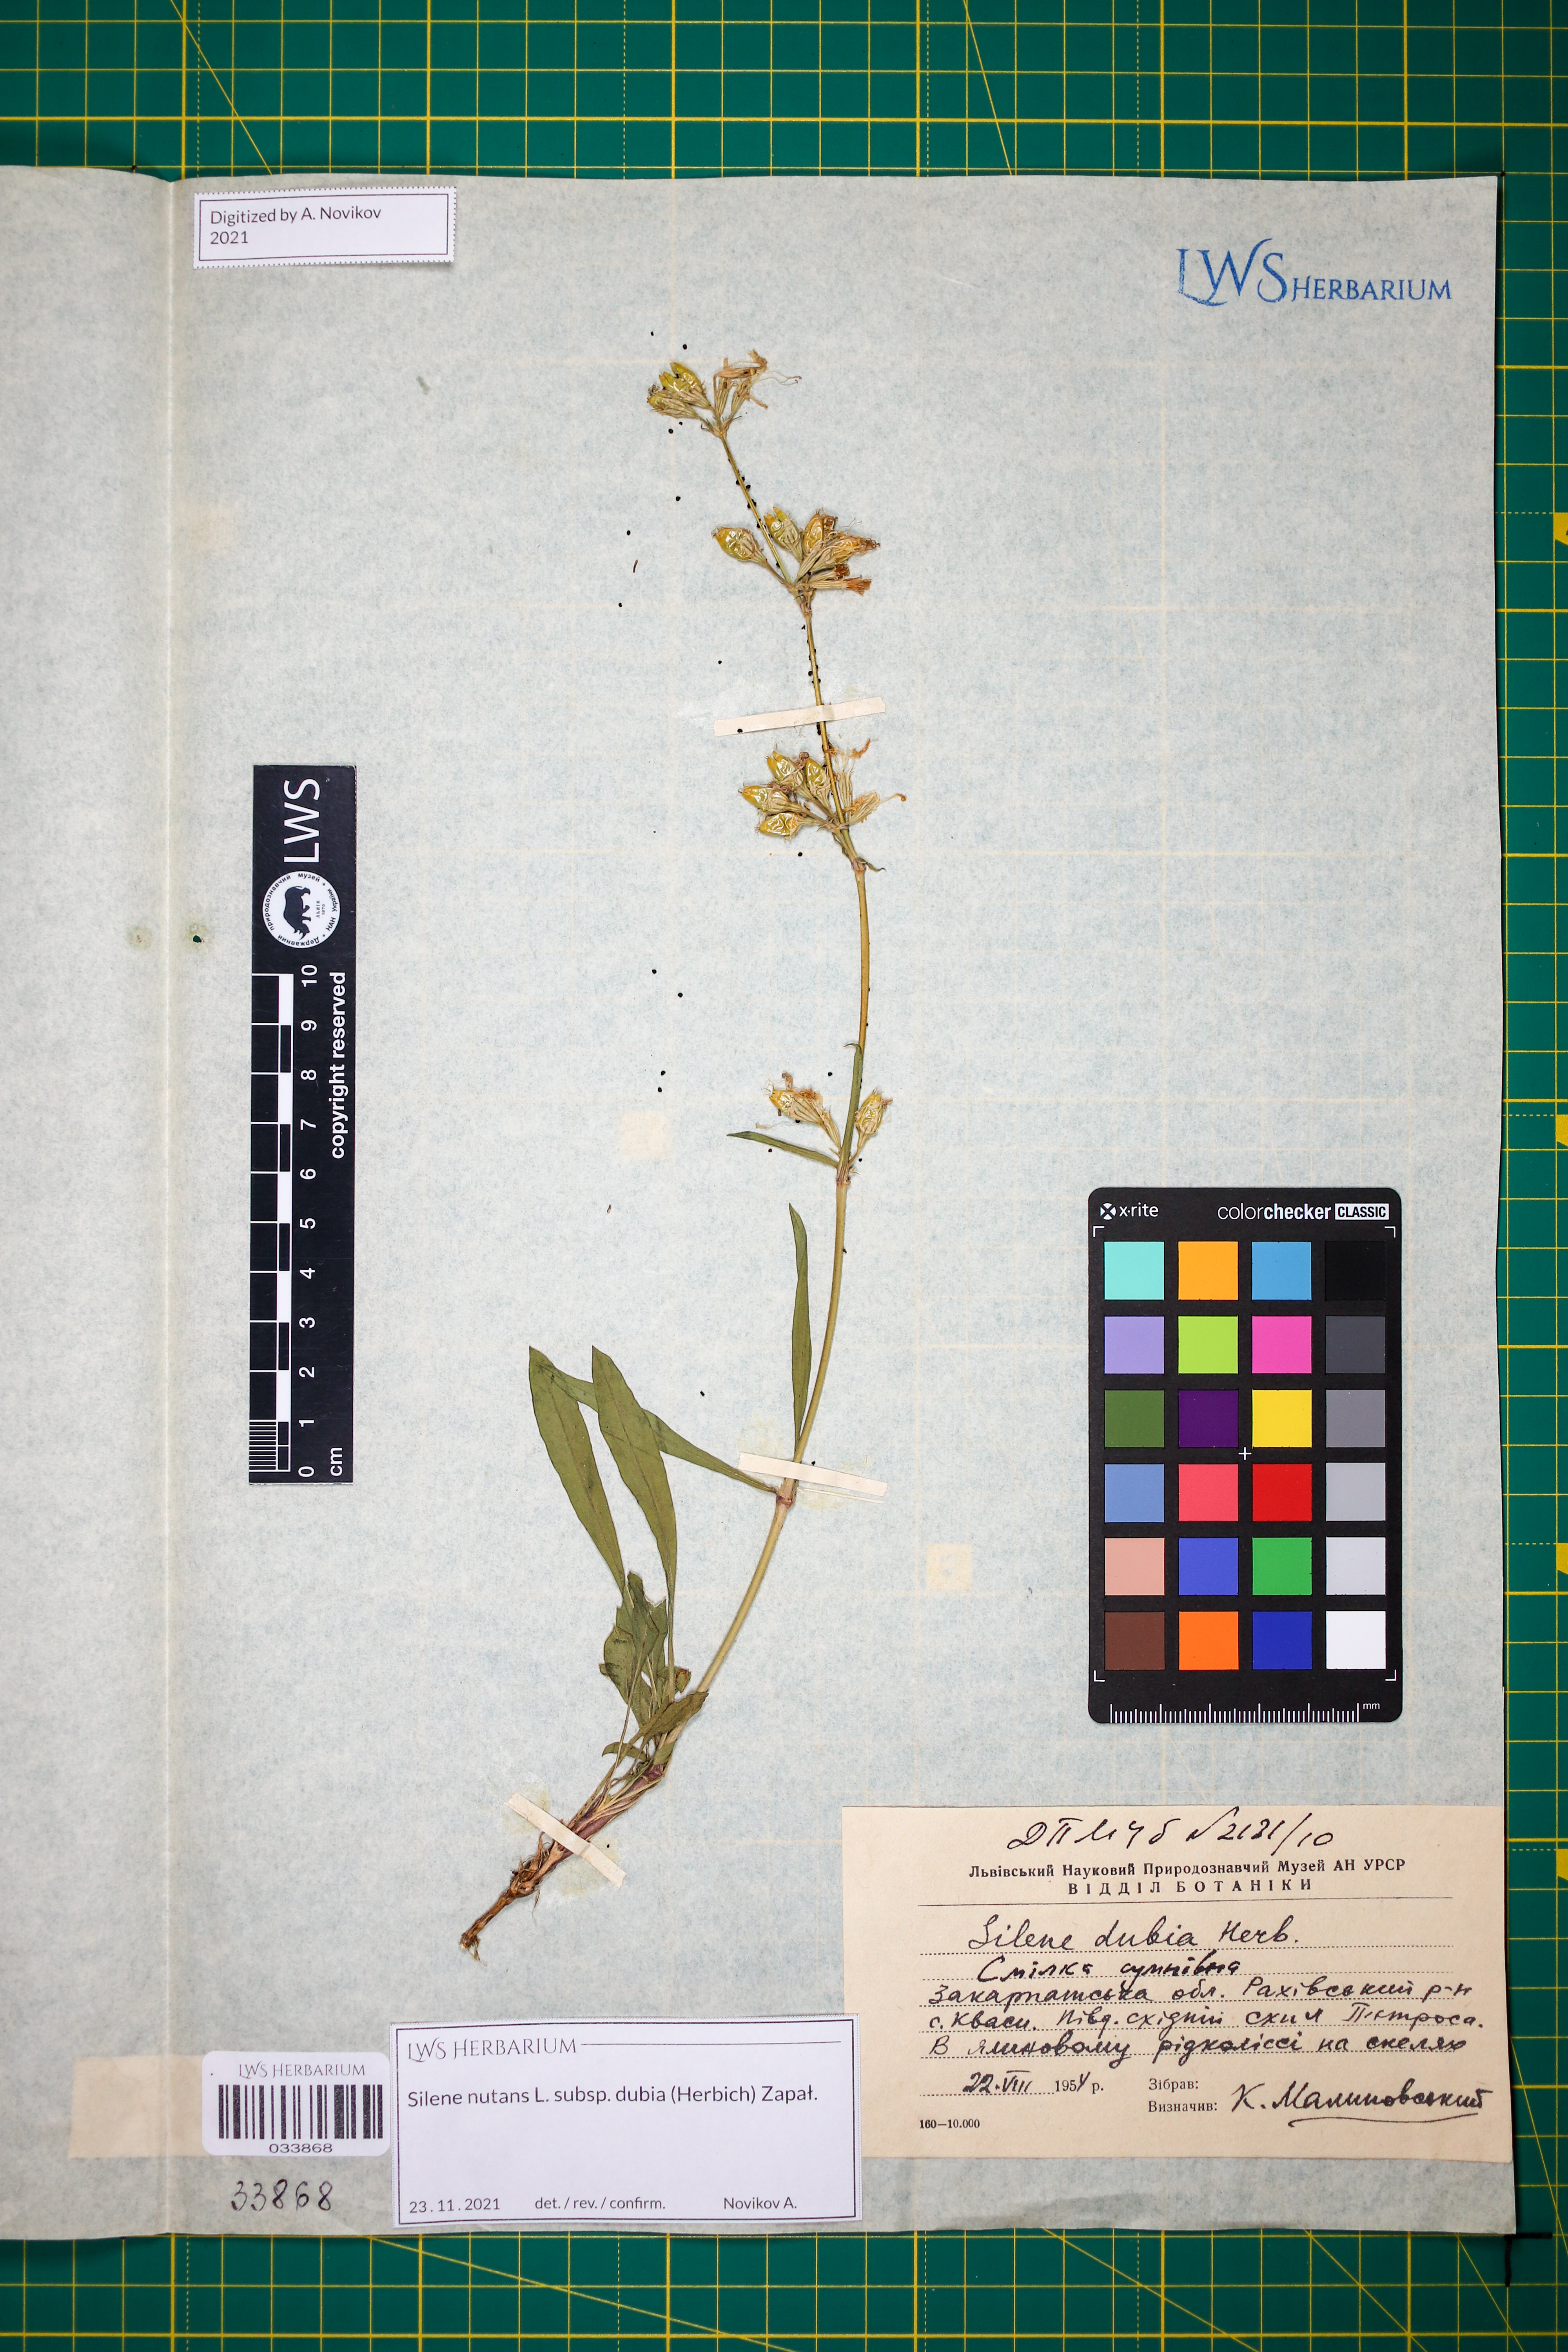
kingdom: Plantae
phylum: Tracheophyta
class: Magnoliopsida
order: Caryophyllales
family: Caryophyllaceae
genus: Silene
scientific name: Silene nutans
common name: Nottingham catchfly
